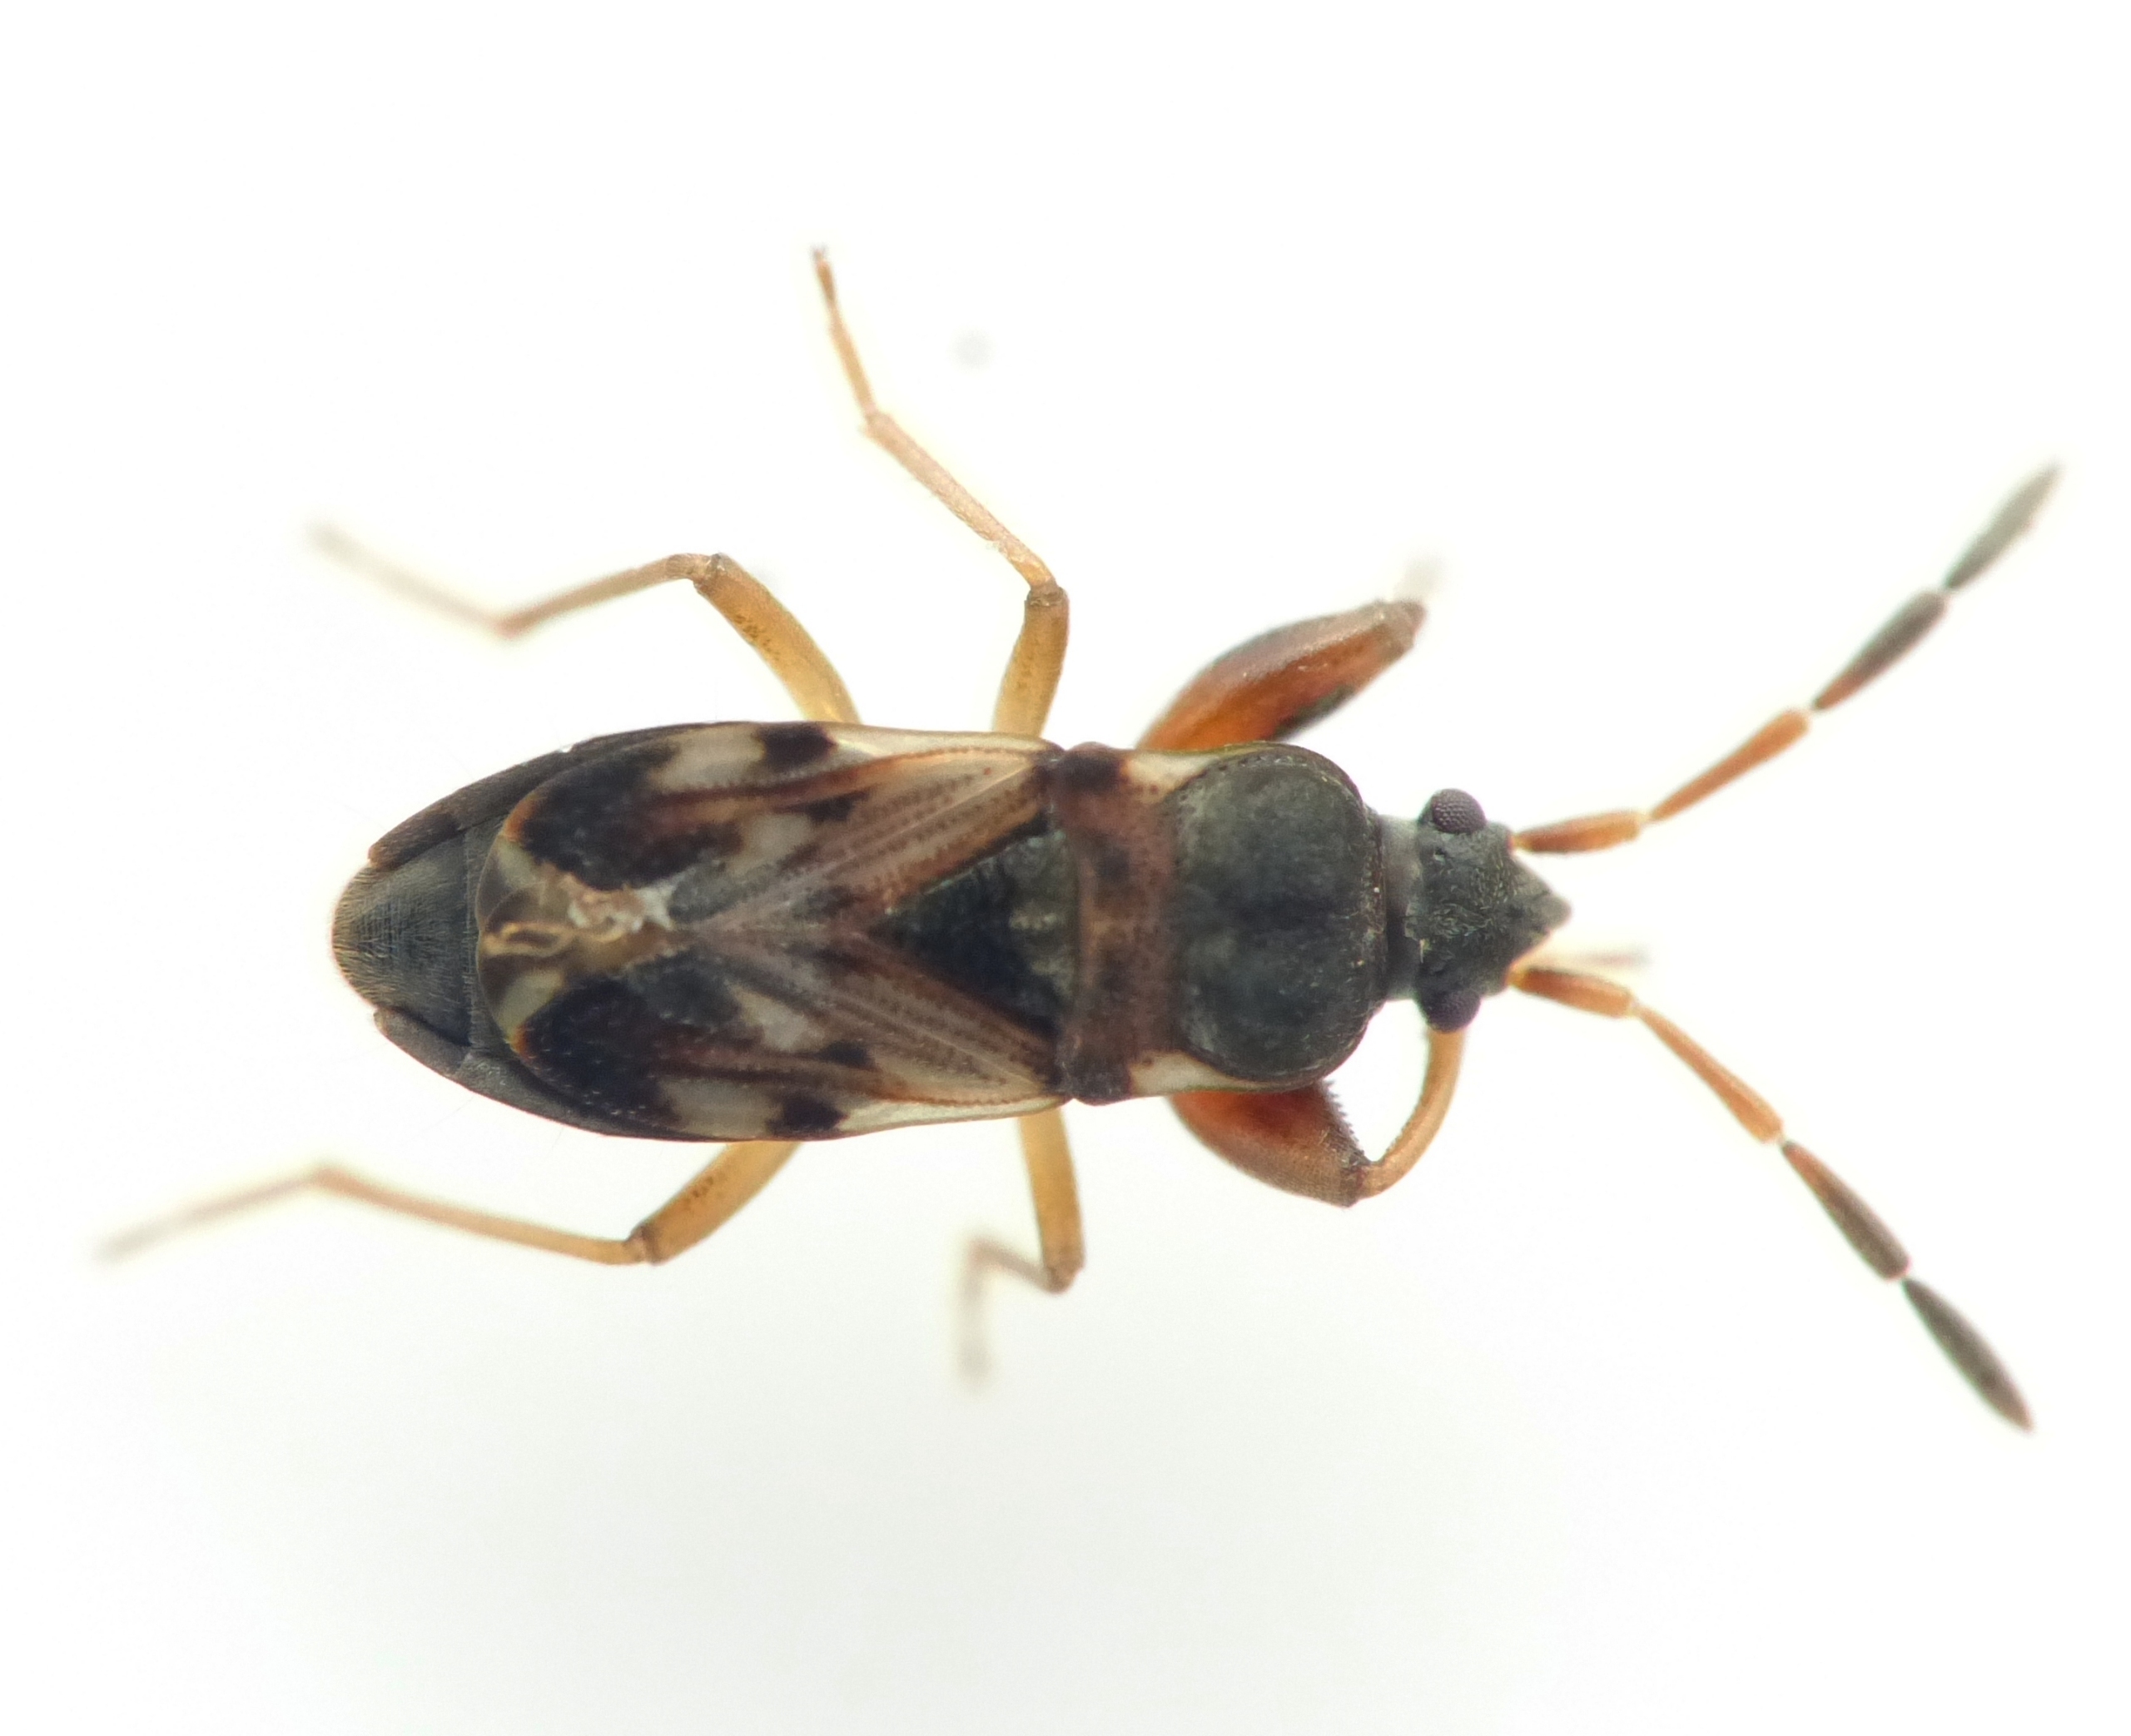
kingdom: Animalia
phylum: Arthropoda
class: Insecta
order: Hemiptera
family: Rhyparochromidae
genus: Scolopostethus
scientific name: Scolopostethus affinis
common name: Jordbærfrøtæge
